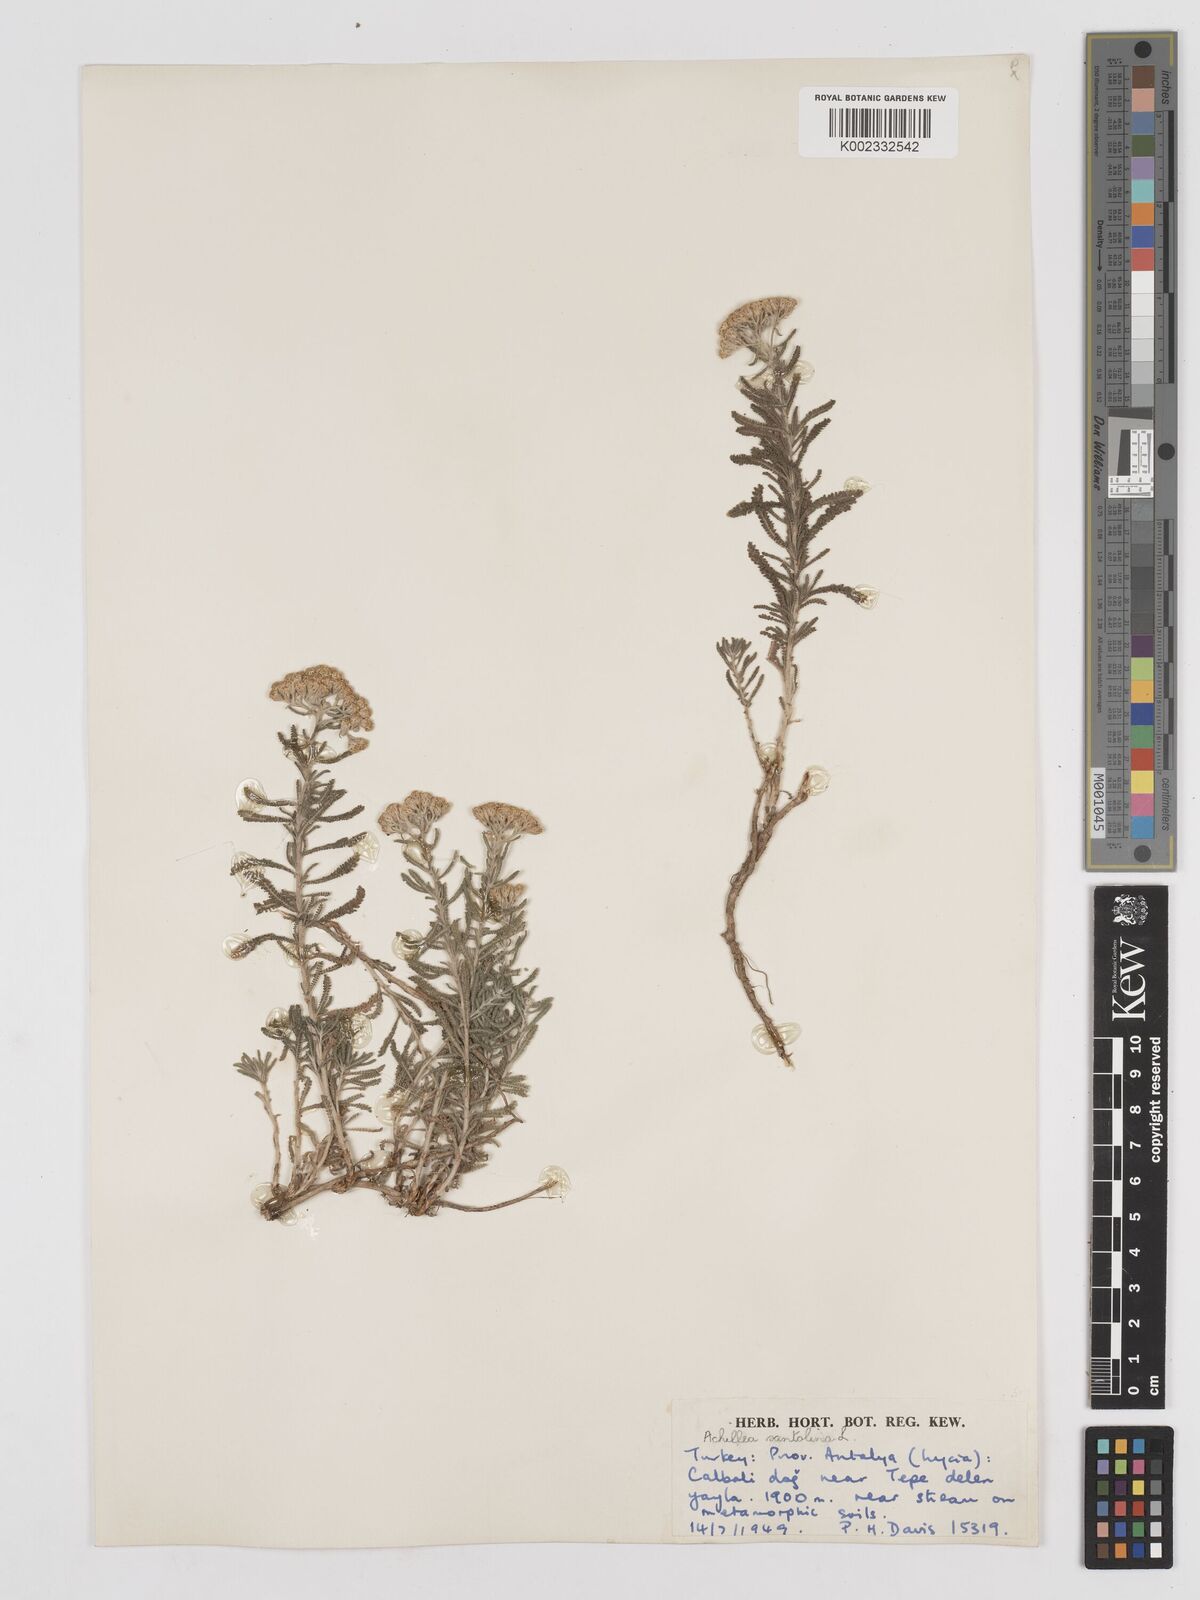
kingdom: Plantae
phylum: Tracheophyta
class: Magnoliopsida
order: Asterales
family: Asteraceae
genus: Achillea
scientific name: Achillea tenuifolia
